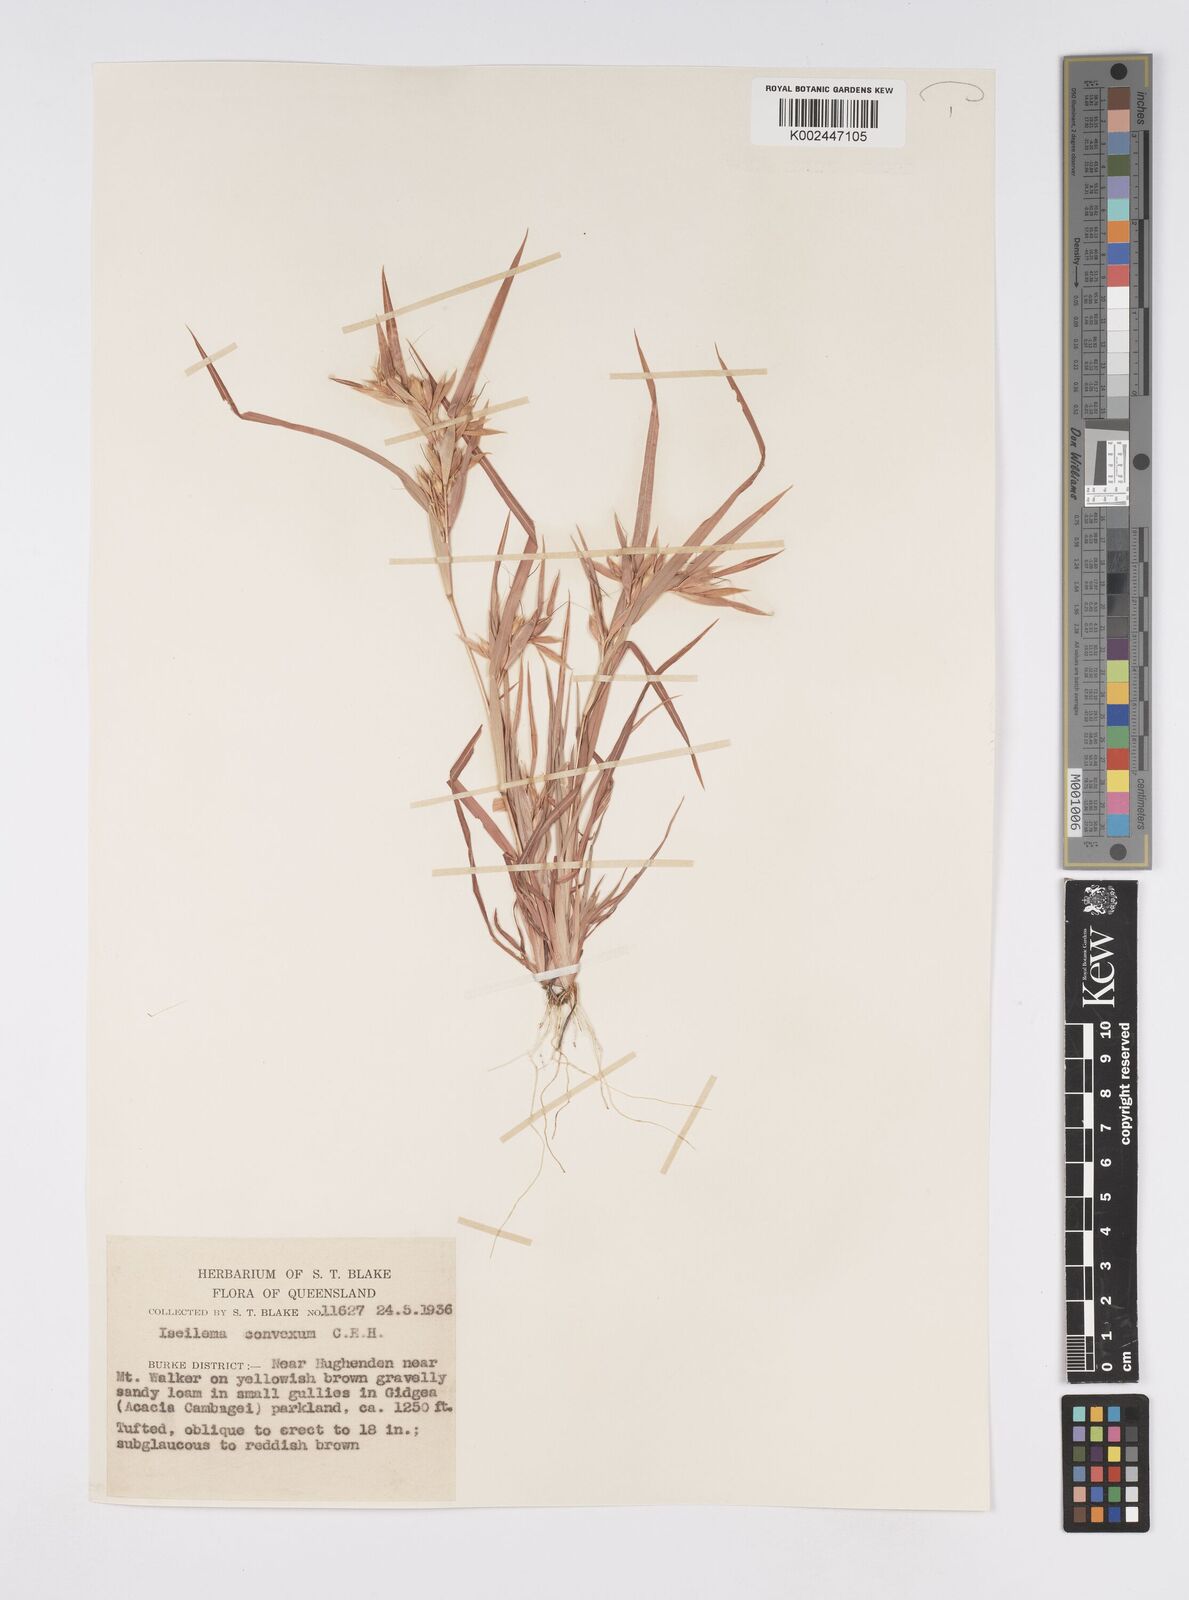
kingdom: Plantae
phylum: Tracheophyta
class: Liliopsida
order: Poales
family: Poaceae
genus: Iseilema
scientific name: Iseilema convexum
